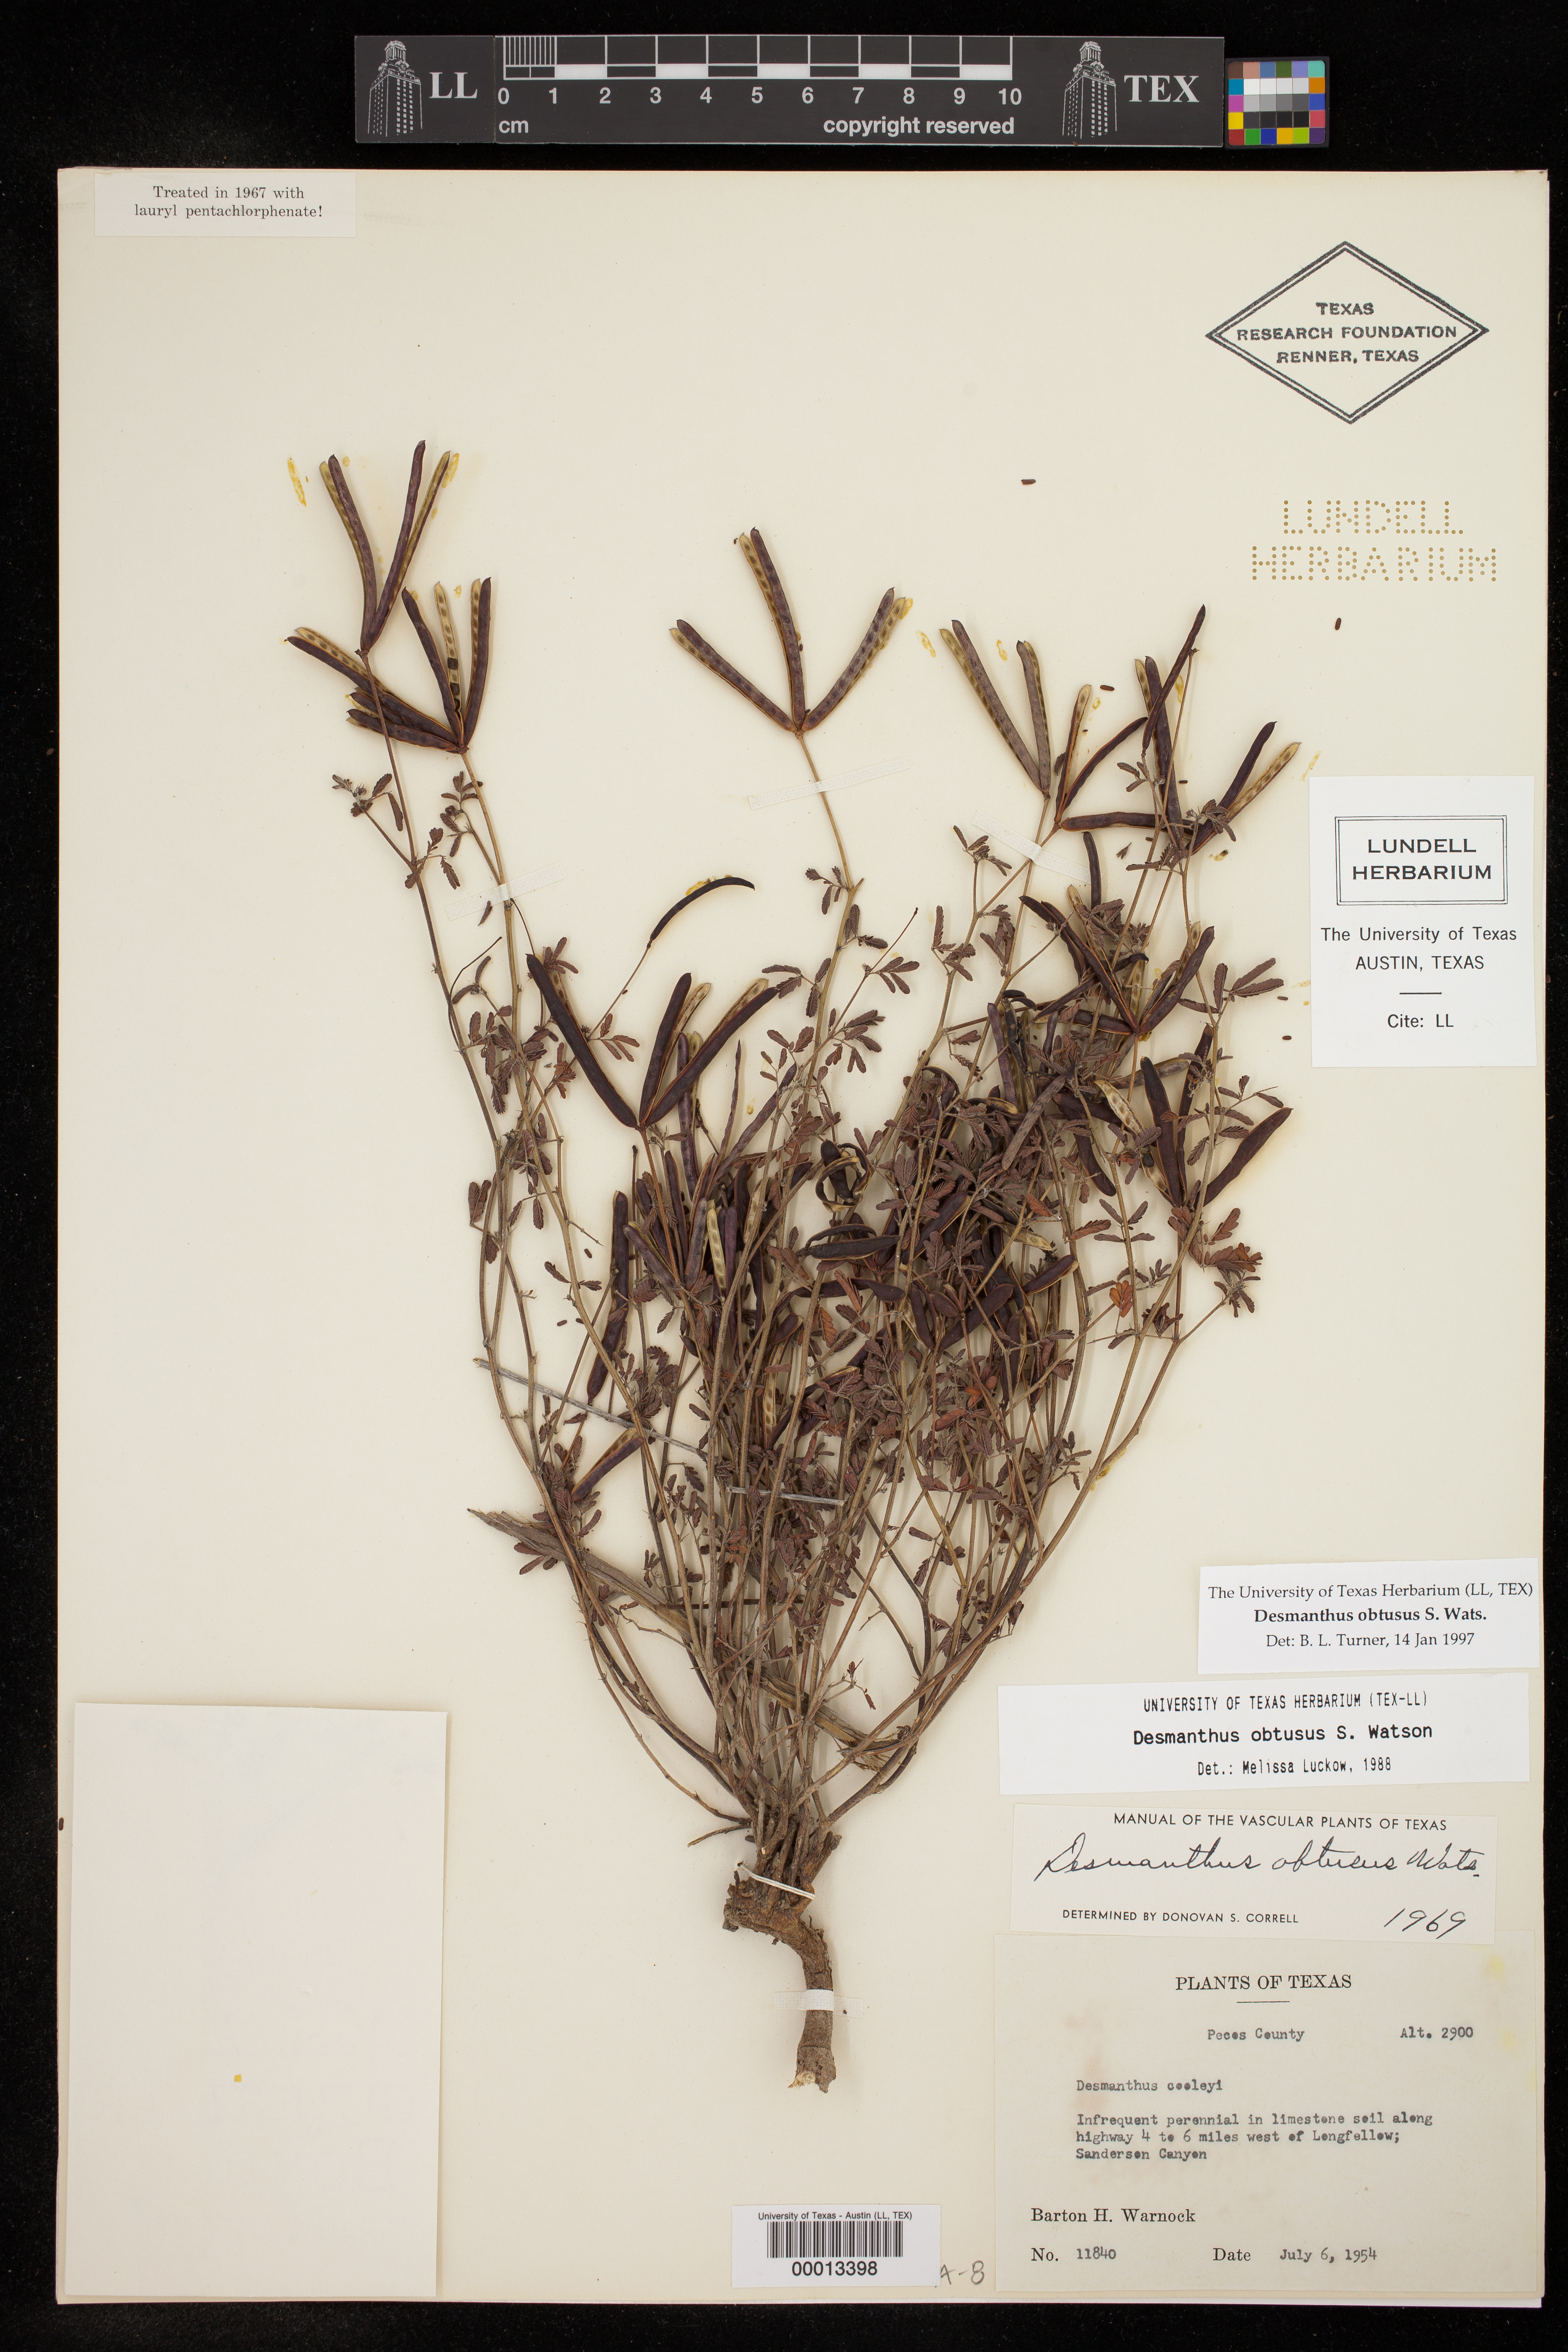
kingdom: Plantae
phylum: Tracheophyta
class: Magnoliopsida
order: Fabales
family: Fabaceae
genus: Desmanthus
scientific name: Desmanthus obtusus
